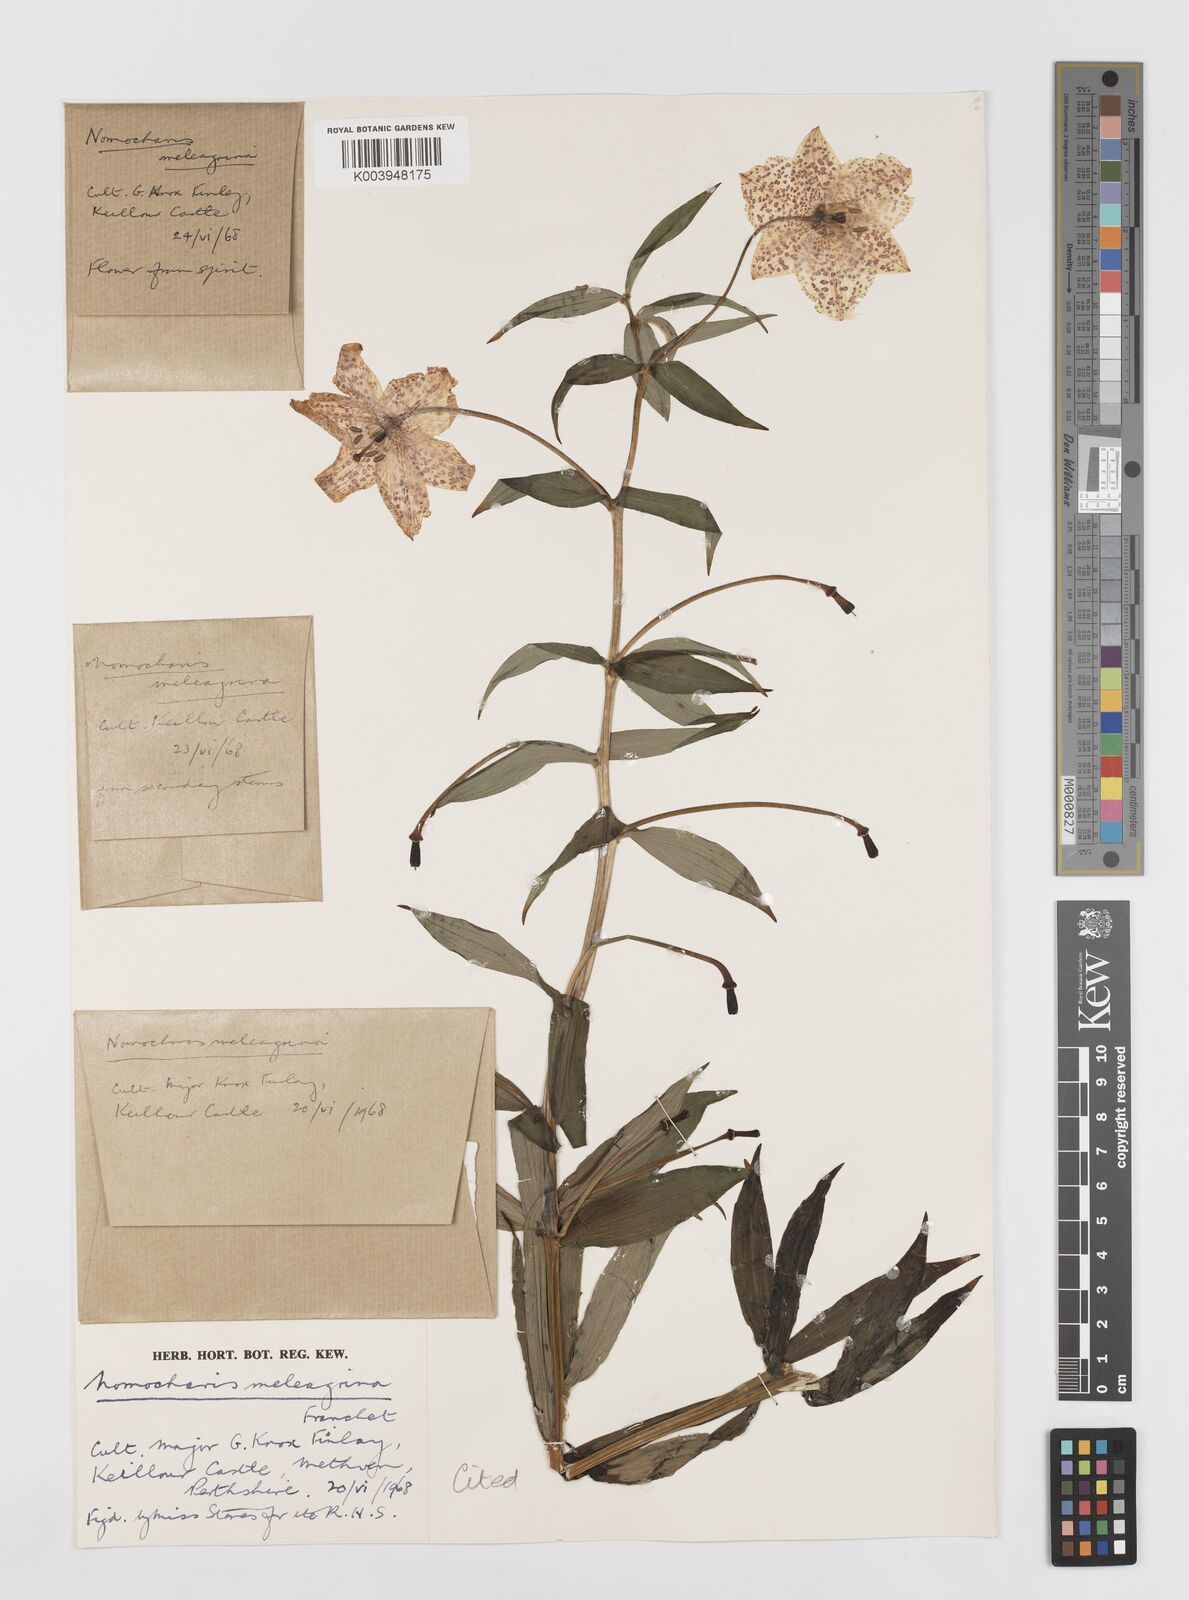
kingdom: Plantae
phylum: Tracheophyta
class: Liliopsida
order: Liliales
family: Liliaceae
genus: Lilium
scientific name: Lilium meleagrina
